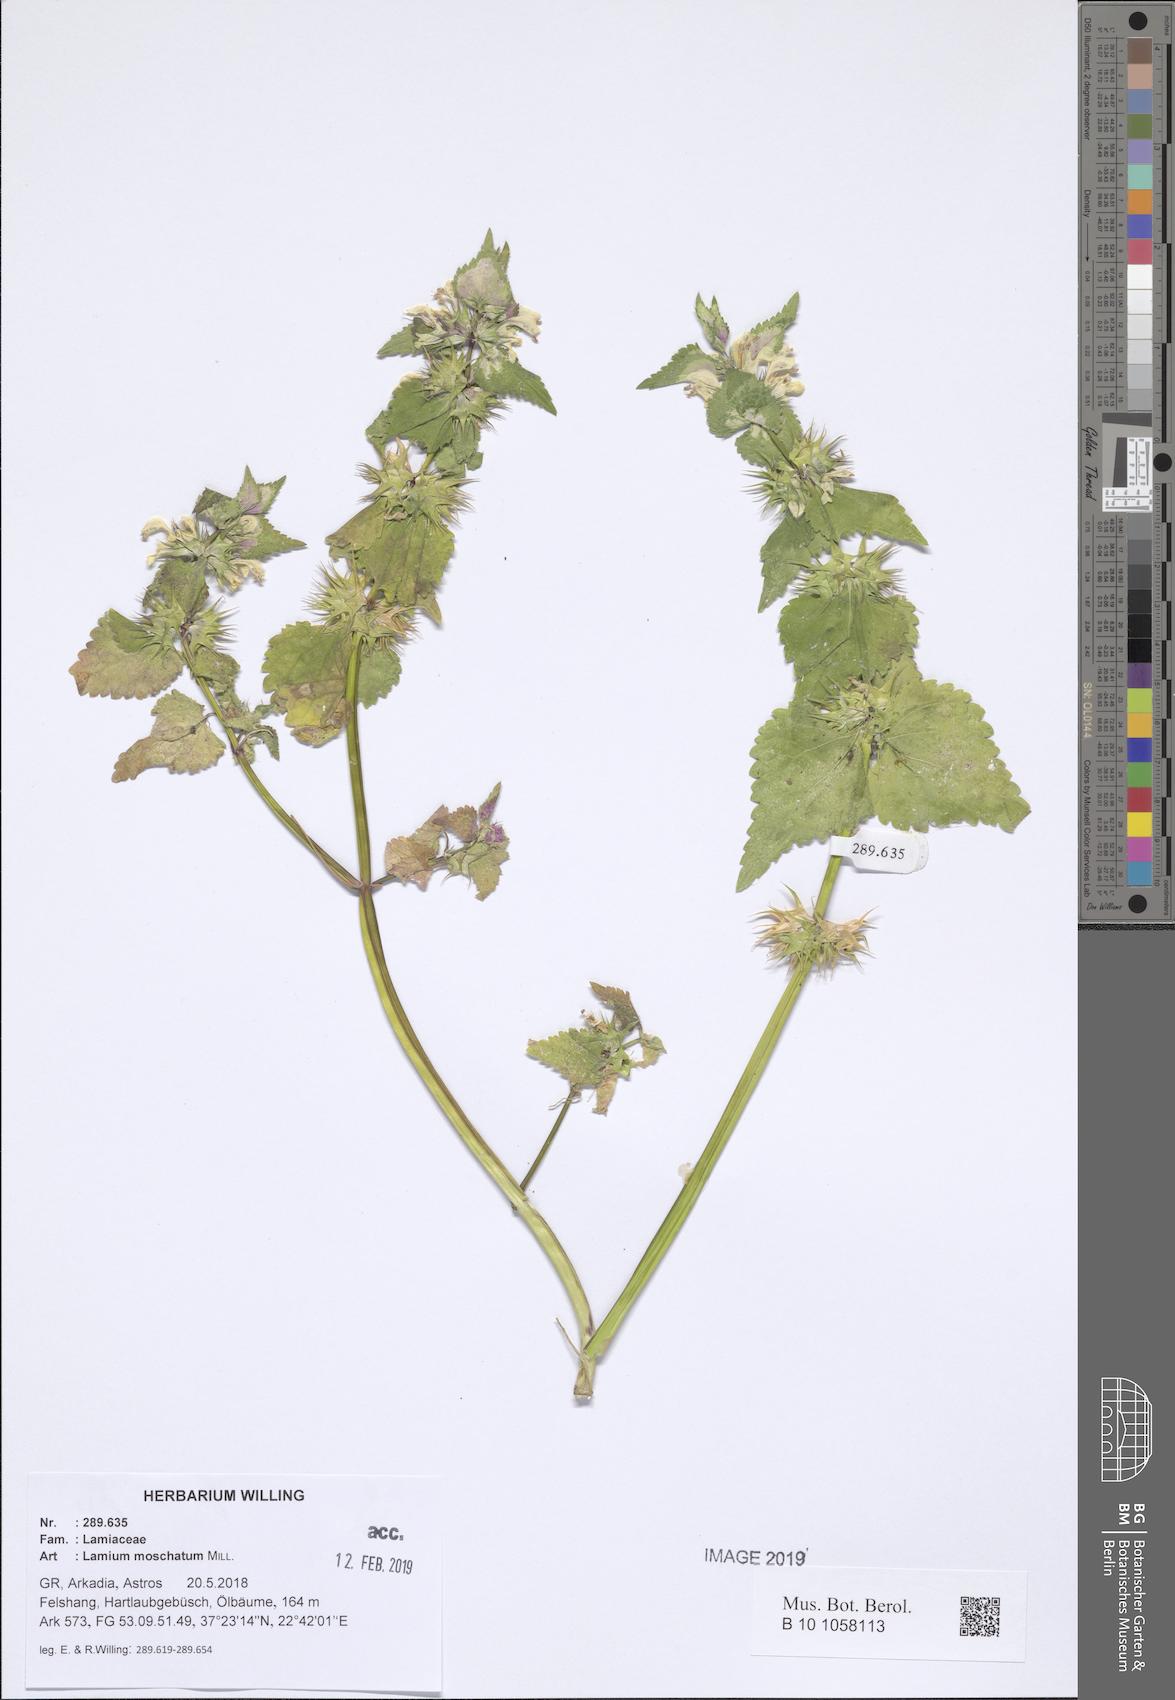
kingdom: Plantae
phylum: Tracheophyta
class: Magnoliopsida
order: Lamiales
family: Lamiaceae
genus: Lamium
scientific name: Lamium moschatum
